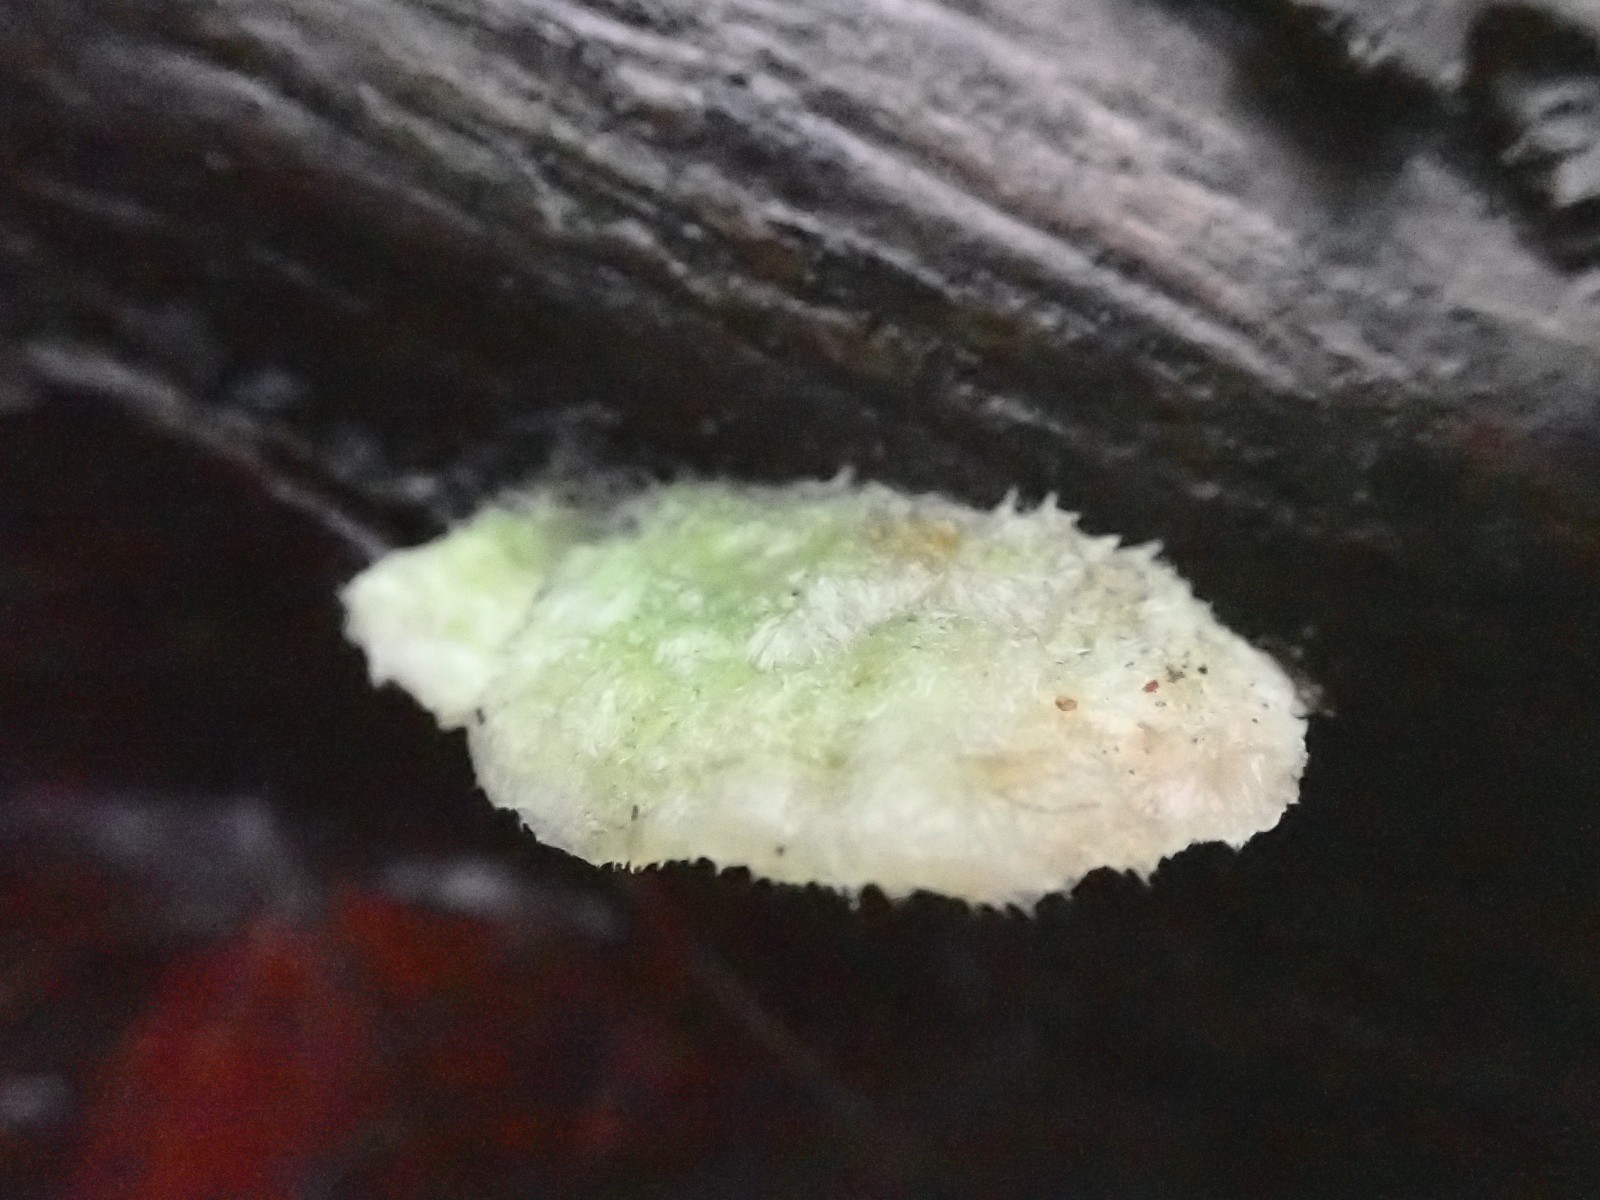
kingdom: Fungi
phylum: Basidiomycota
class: Agaricomycetes
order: Polyporales
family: Polyporaceae
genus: Trametes
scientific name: Trametes hirsuta
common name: håret læderporesvamp
